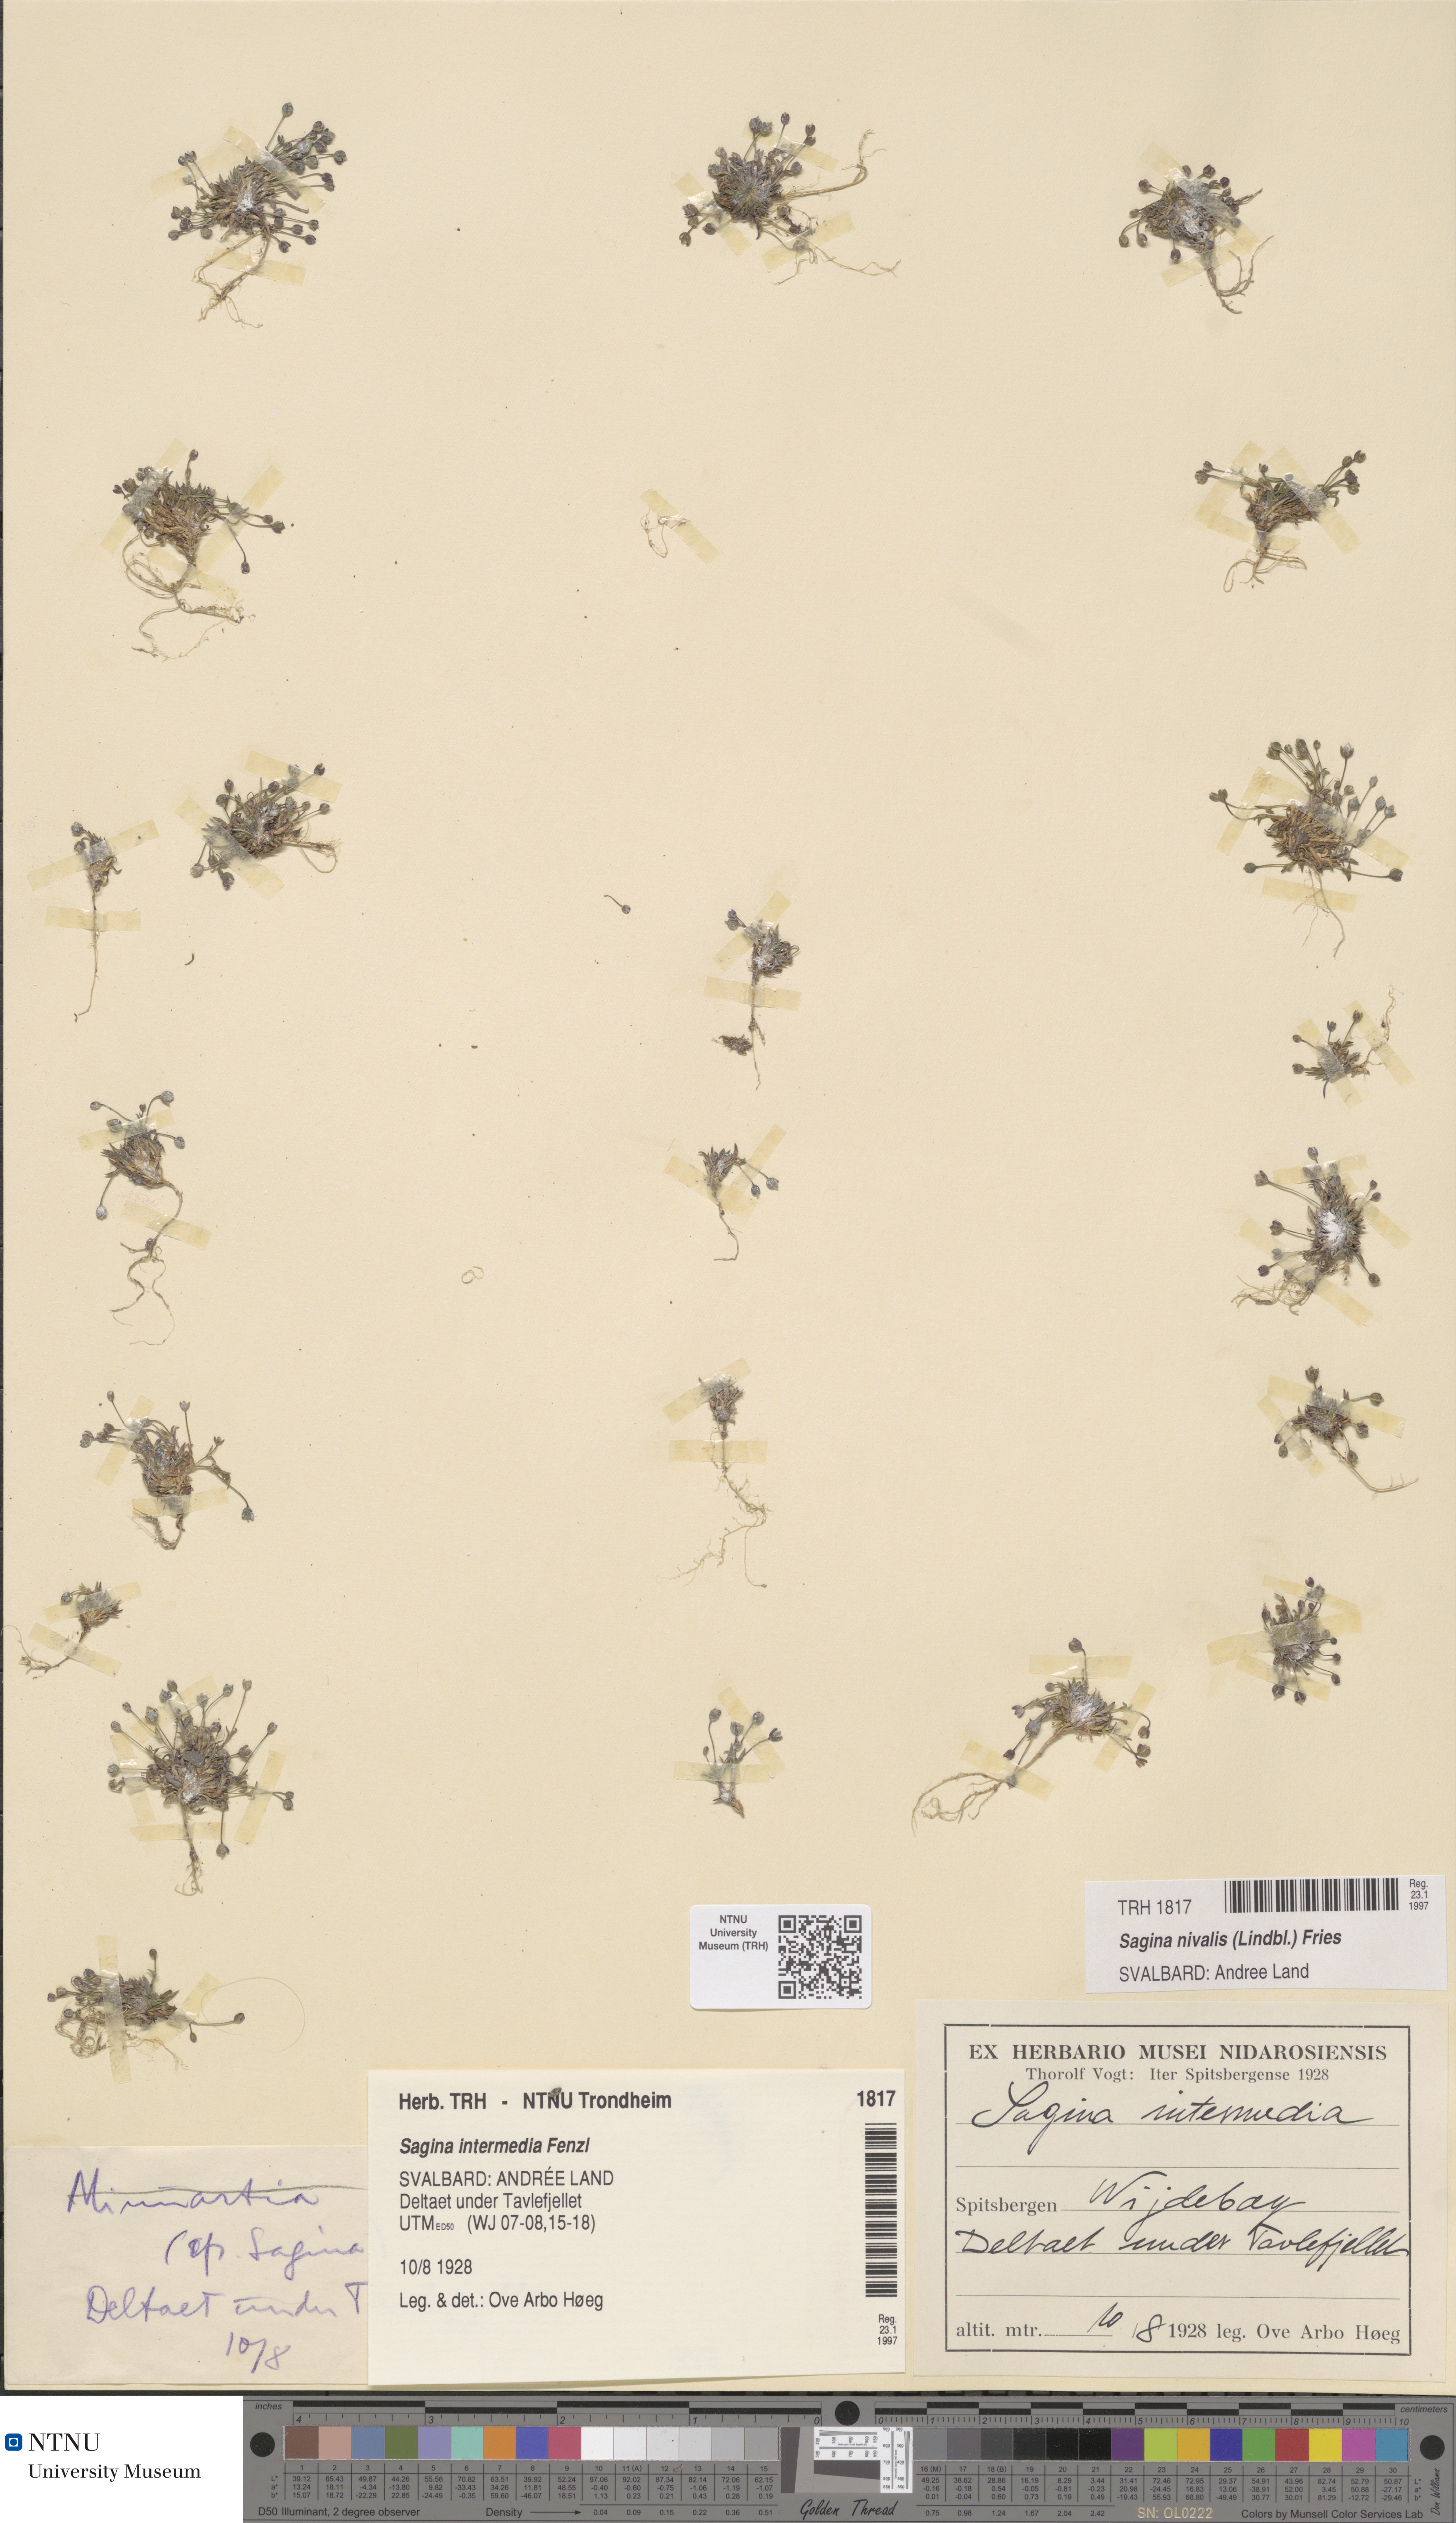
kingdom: Plantae
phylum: Tracheophyta
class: Magnoliopsida
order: Caryophyllales
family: Caryophyllaceae
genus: Sagina
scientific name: Sagina nivalis
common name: Snow pearlwort
